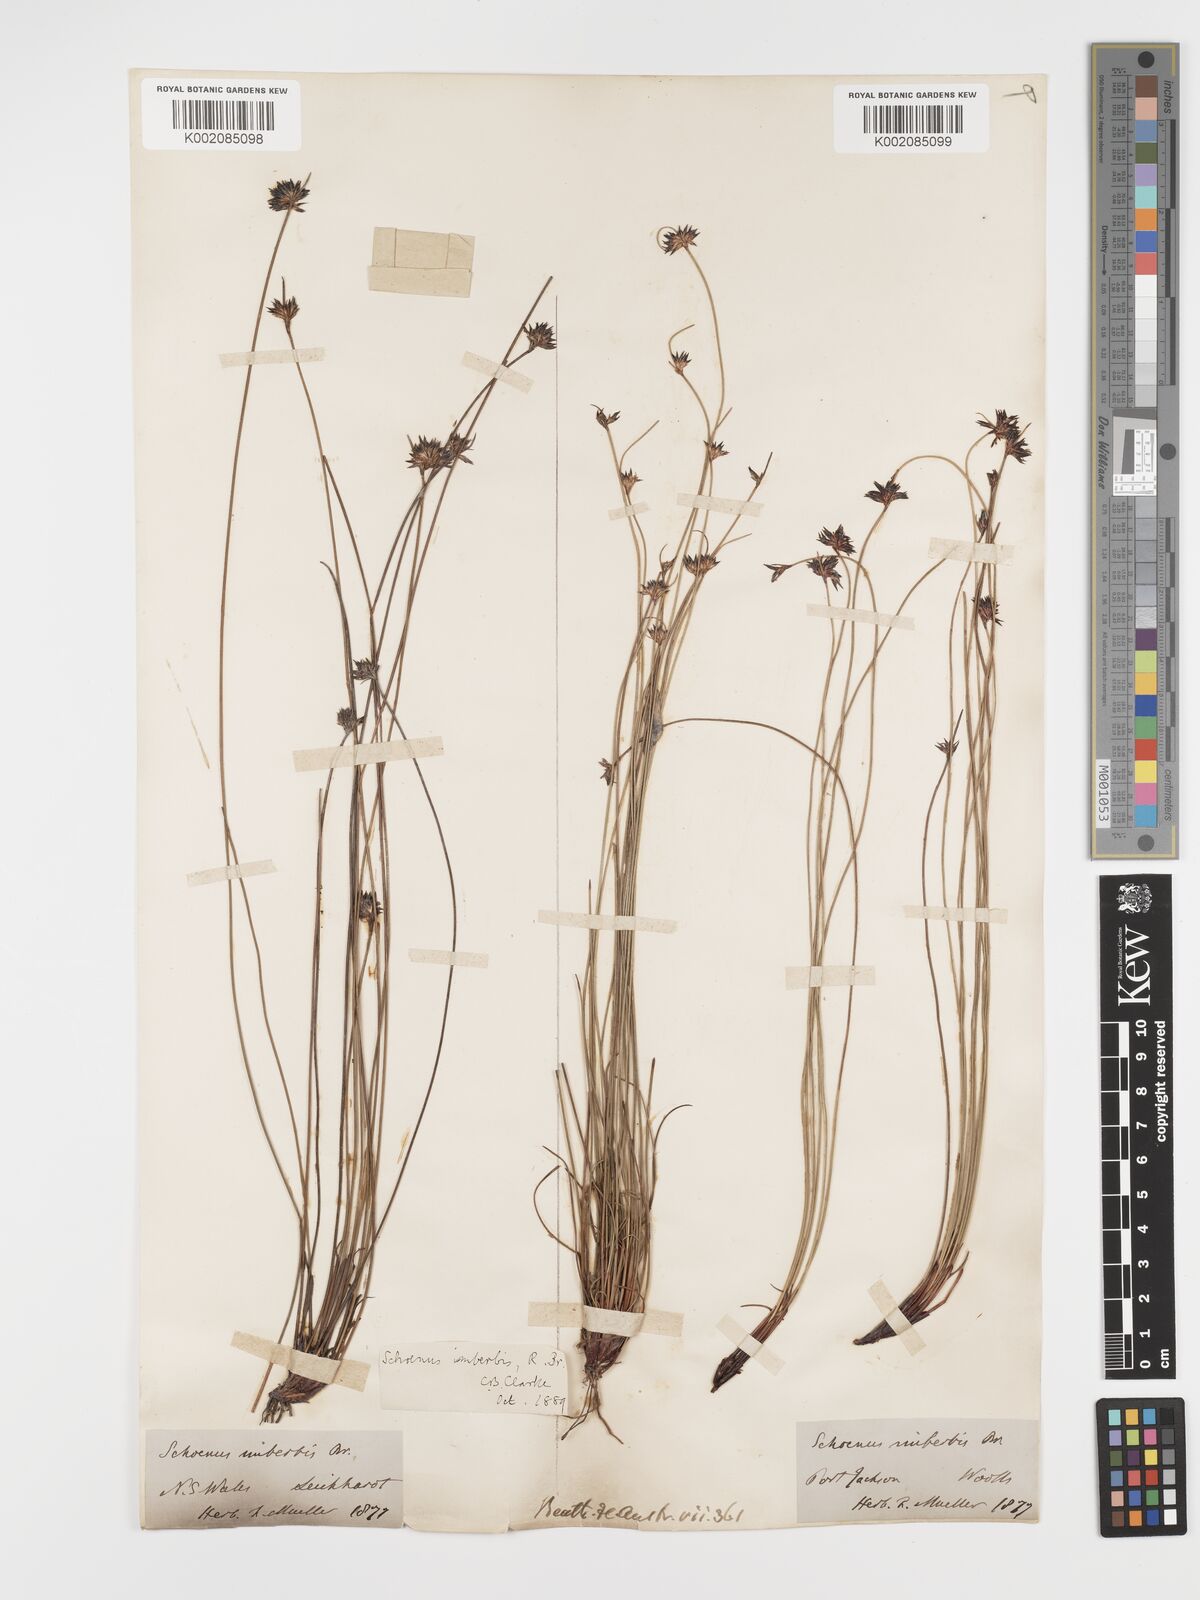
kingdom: Plantae
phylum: Tracheophyta
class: Liliopsida
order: Poales
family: Cyperaceae
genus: Schoenus
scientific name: Schoenus imberbis
